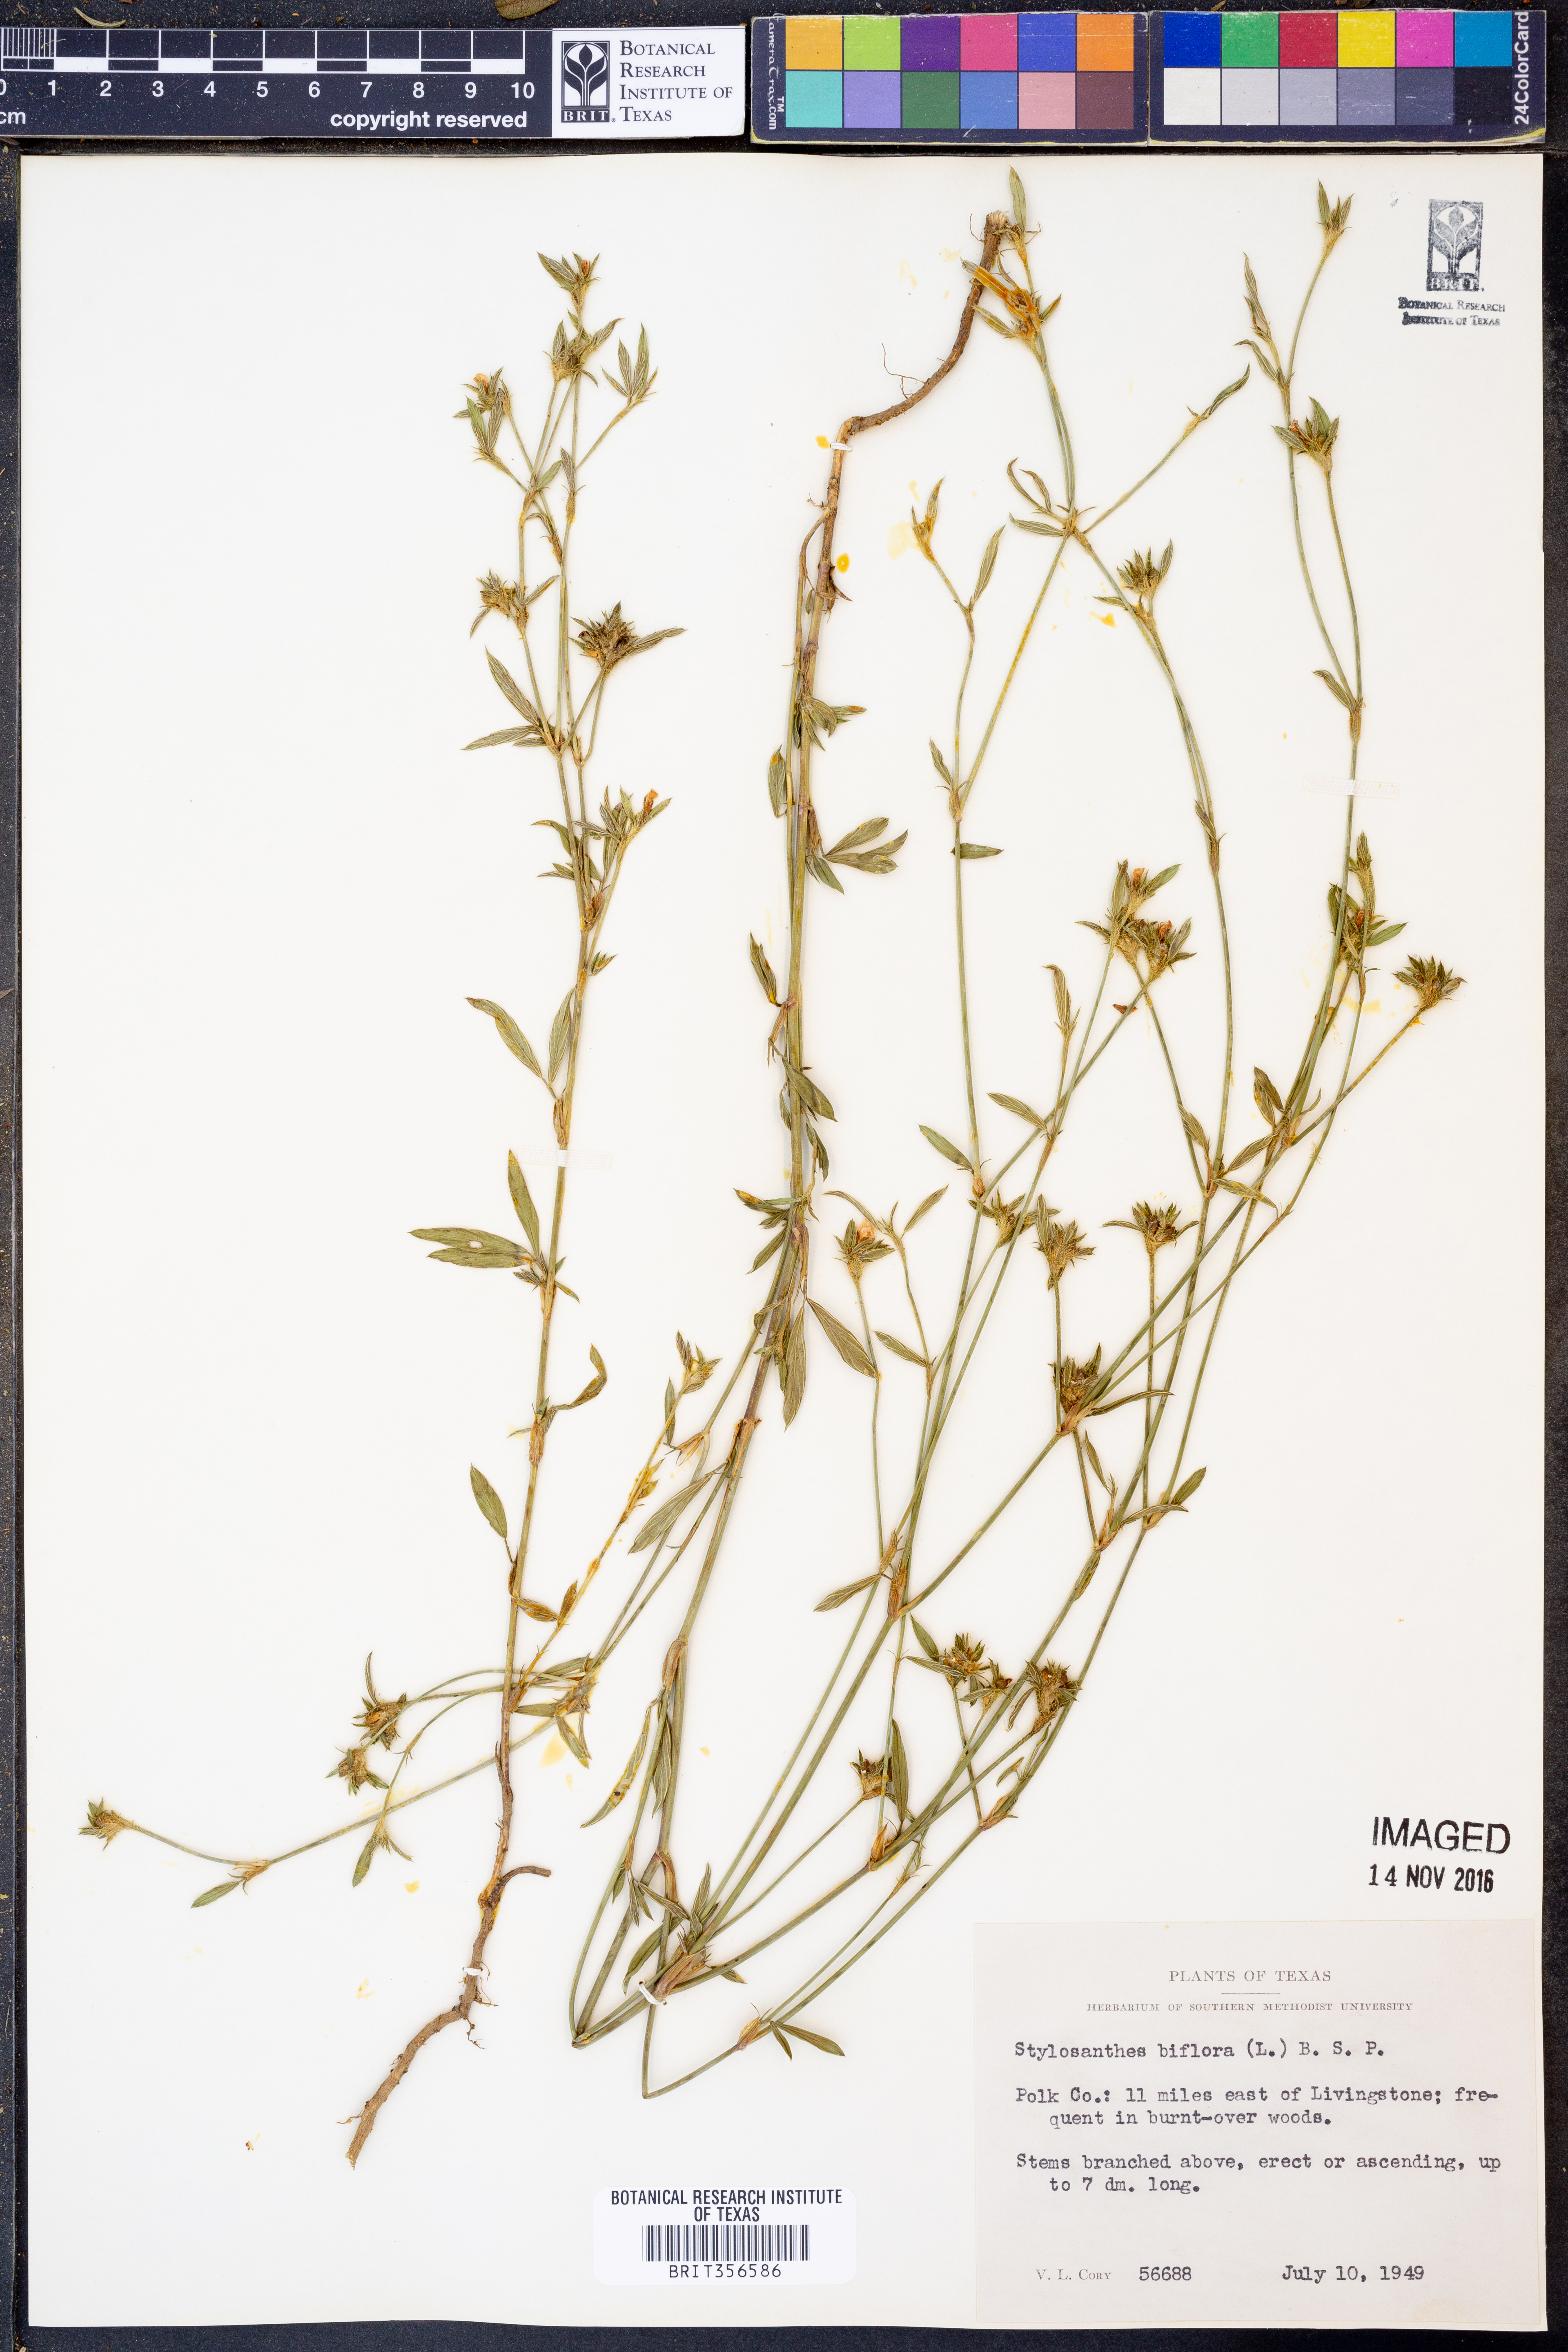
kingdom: Plantae
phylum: Tracheophyta
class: Magnoliopsida
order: Fabales
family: Fabaceae
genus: Stylosanthes
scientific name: Stylosanthes biflora
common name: Two-flower pencil-flower
